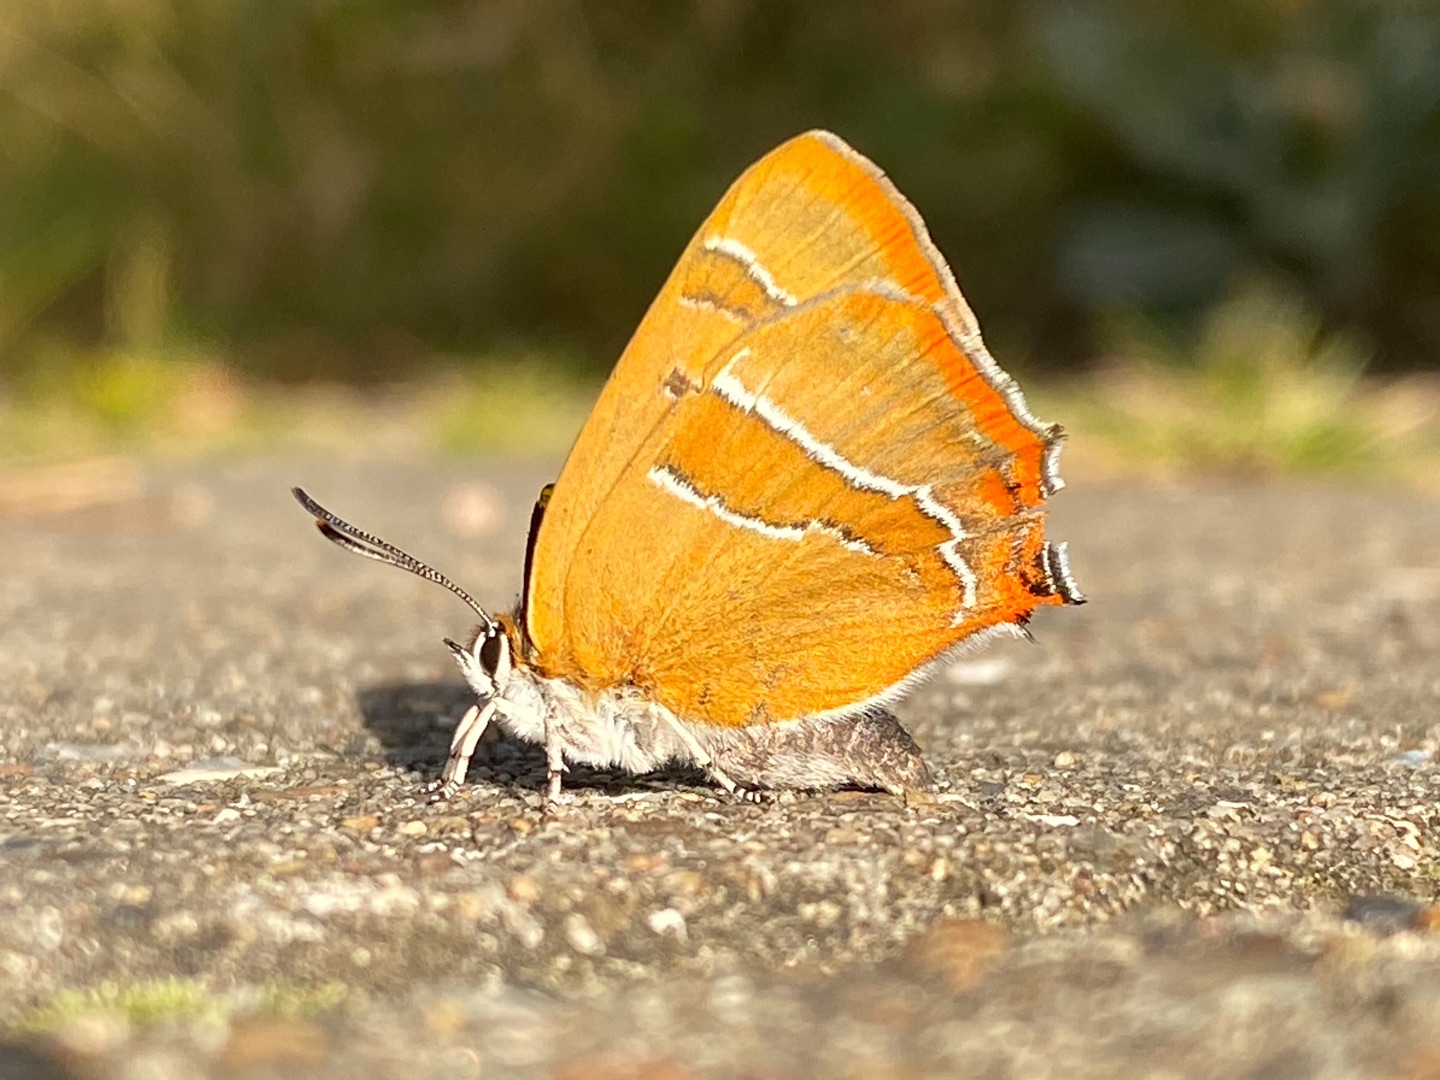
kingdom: Animalia
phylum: Arthropoda
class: Insecta
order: Lepidoptera
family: Lycaenidae
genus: Thecla
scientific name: Thecla betulae
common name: Guldhale
